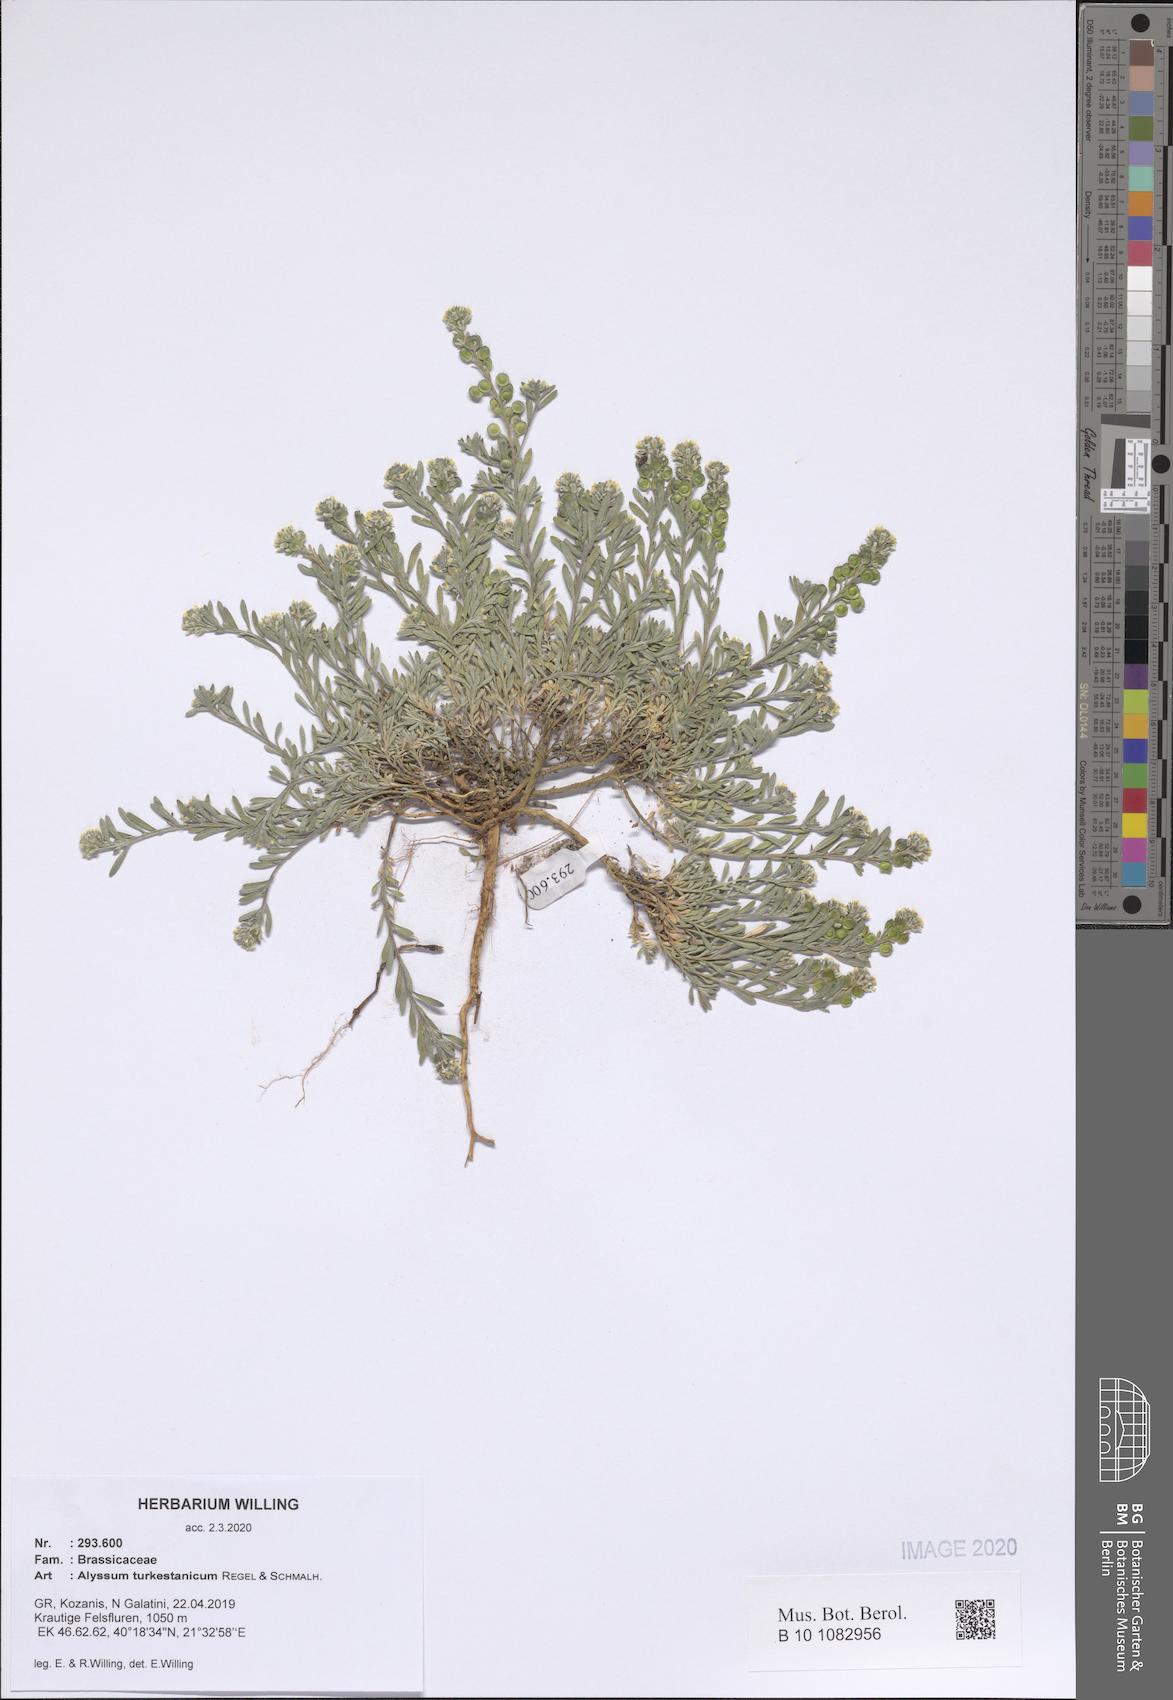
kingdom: Plantae
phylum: Tracheophyta
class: Magnoliopsida
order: Brassicales
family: Brassicaceae
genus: Alyssum
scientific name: Alyssum turkestanicum
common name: Desert alyssum
